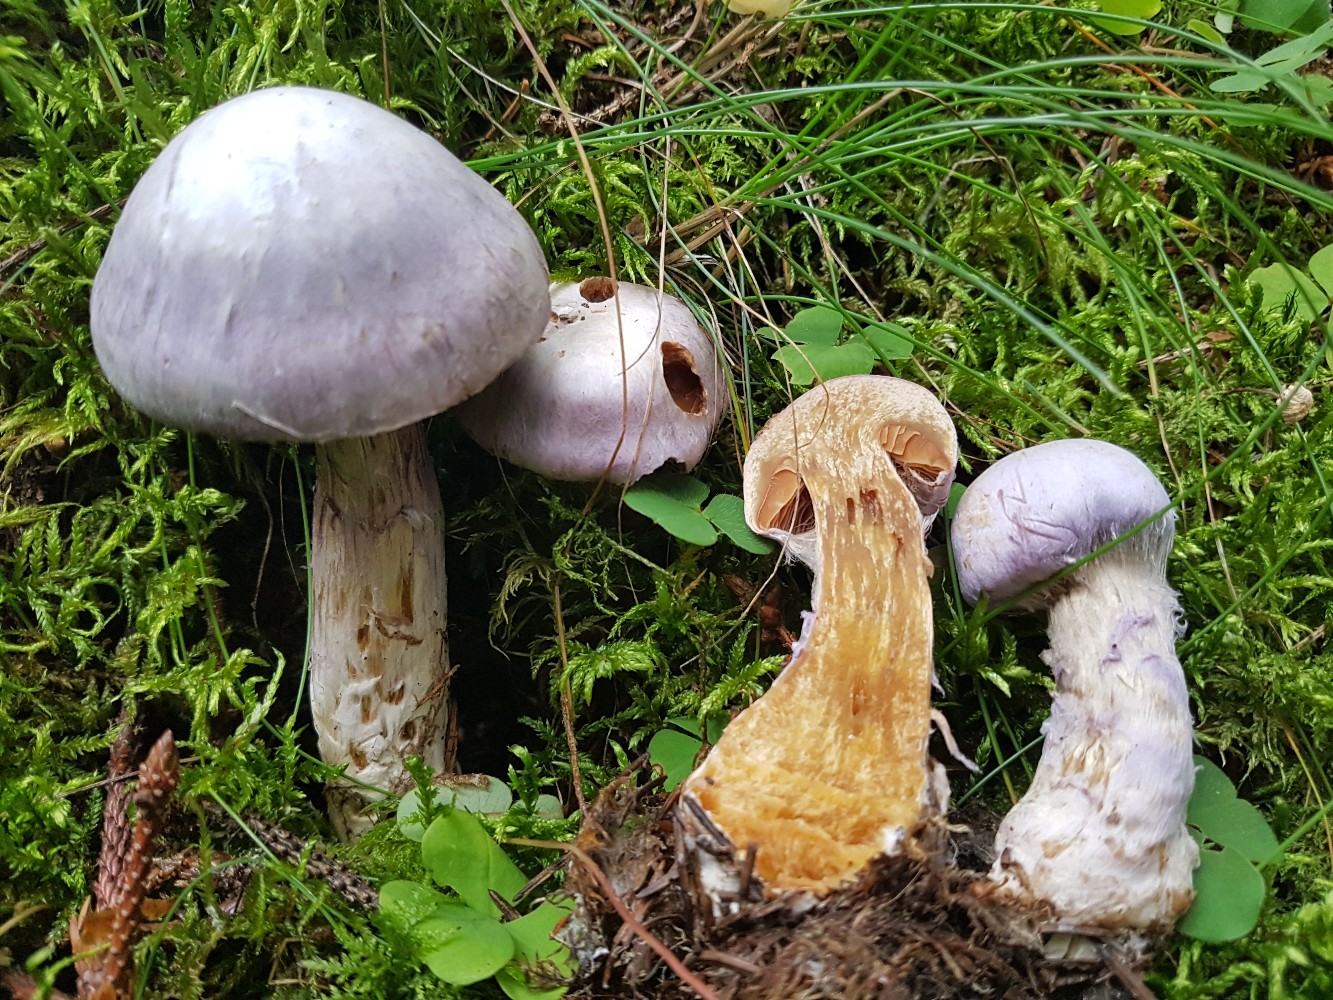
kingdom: Fungi
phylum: Basidiomycota
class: Agaricomycetes
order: Agaricales
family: Cortinariaceae
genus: Cortinarius
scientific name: Cortinarius traganus
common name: safrankødet slørhat
